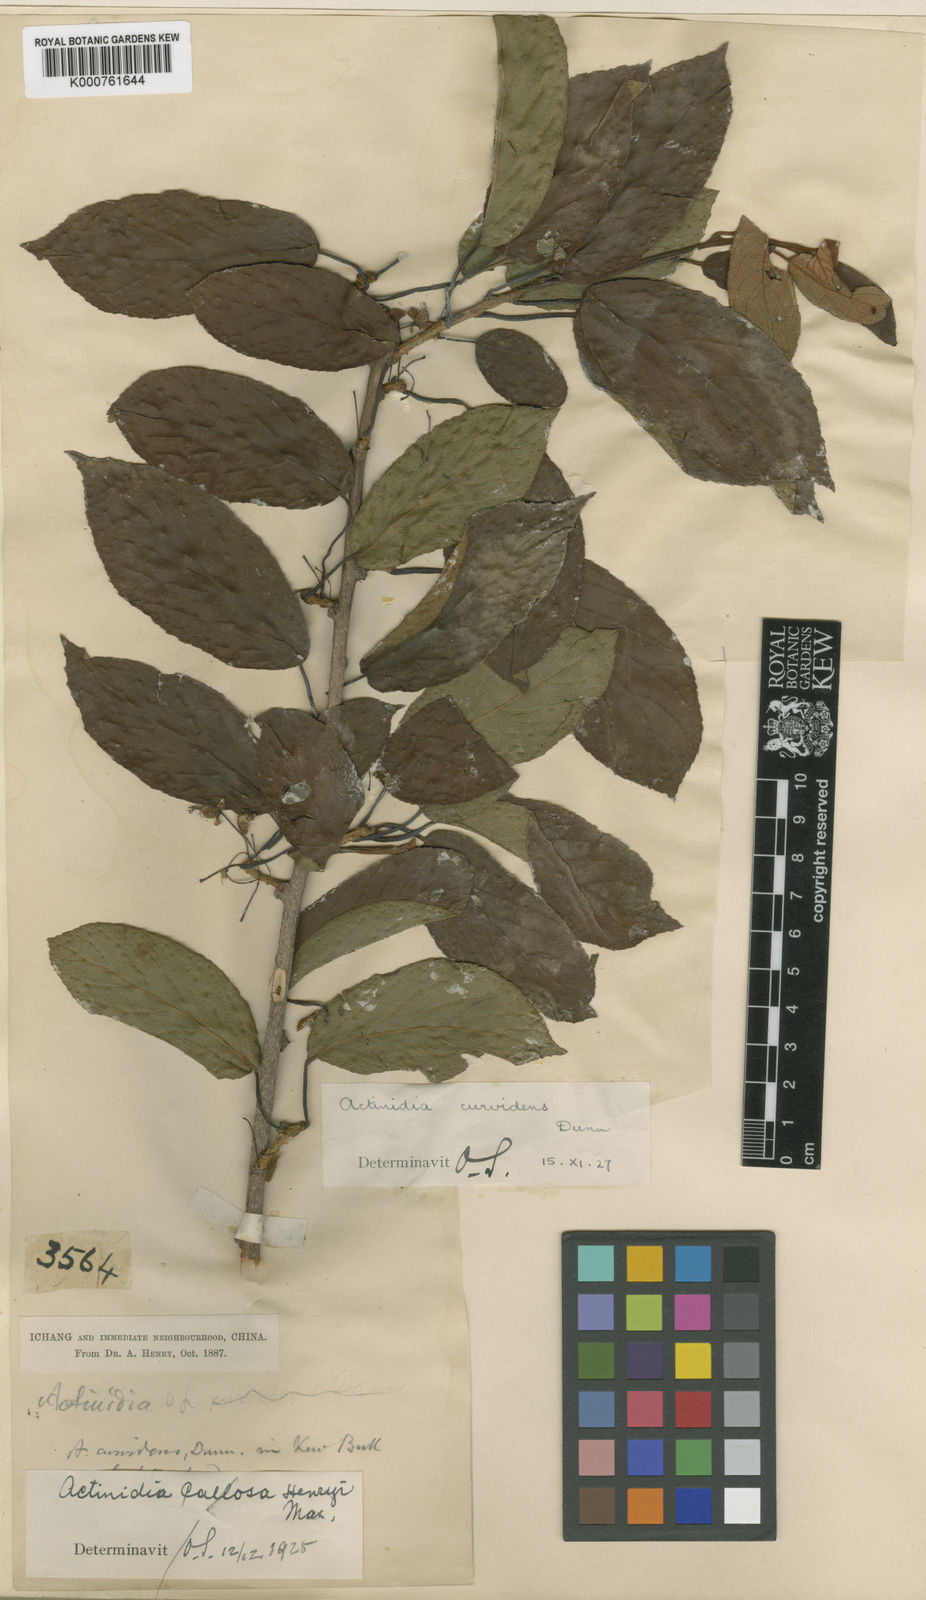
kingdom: Plantae
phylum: Tracheophyta
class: Magnoliopsida
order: Ericales
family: Actinidiaceae
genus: Actinidia
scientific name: Actinidia callosa
